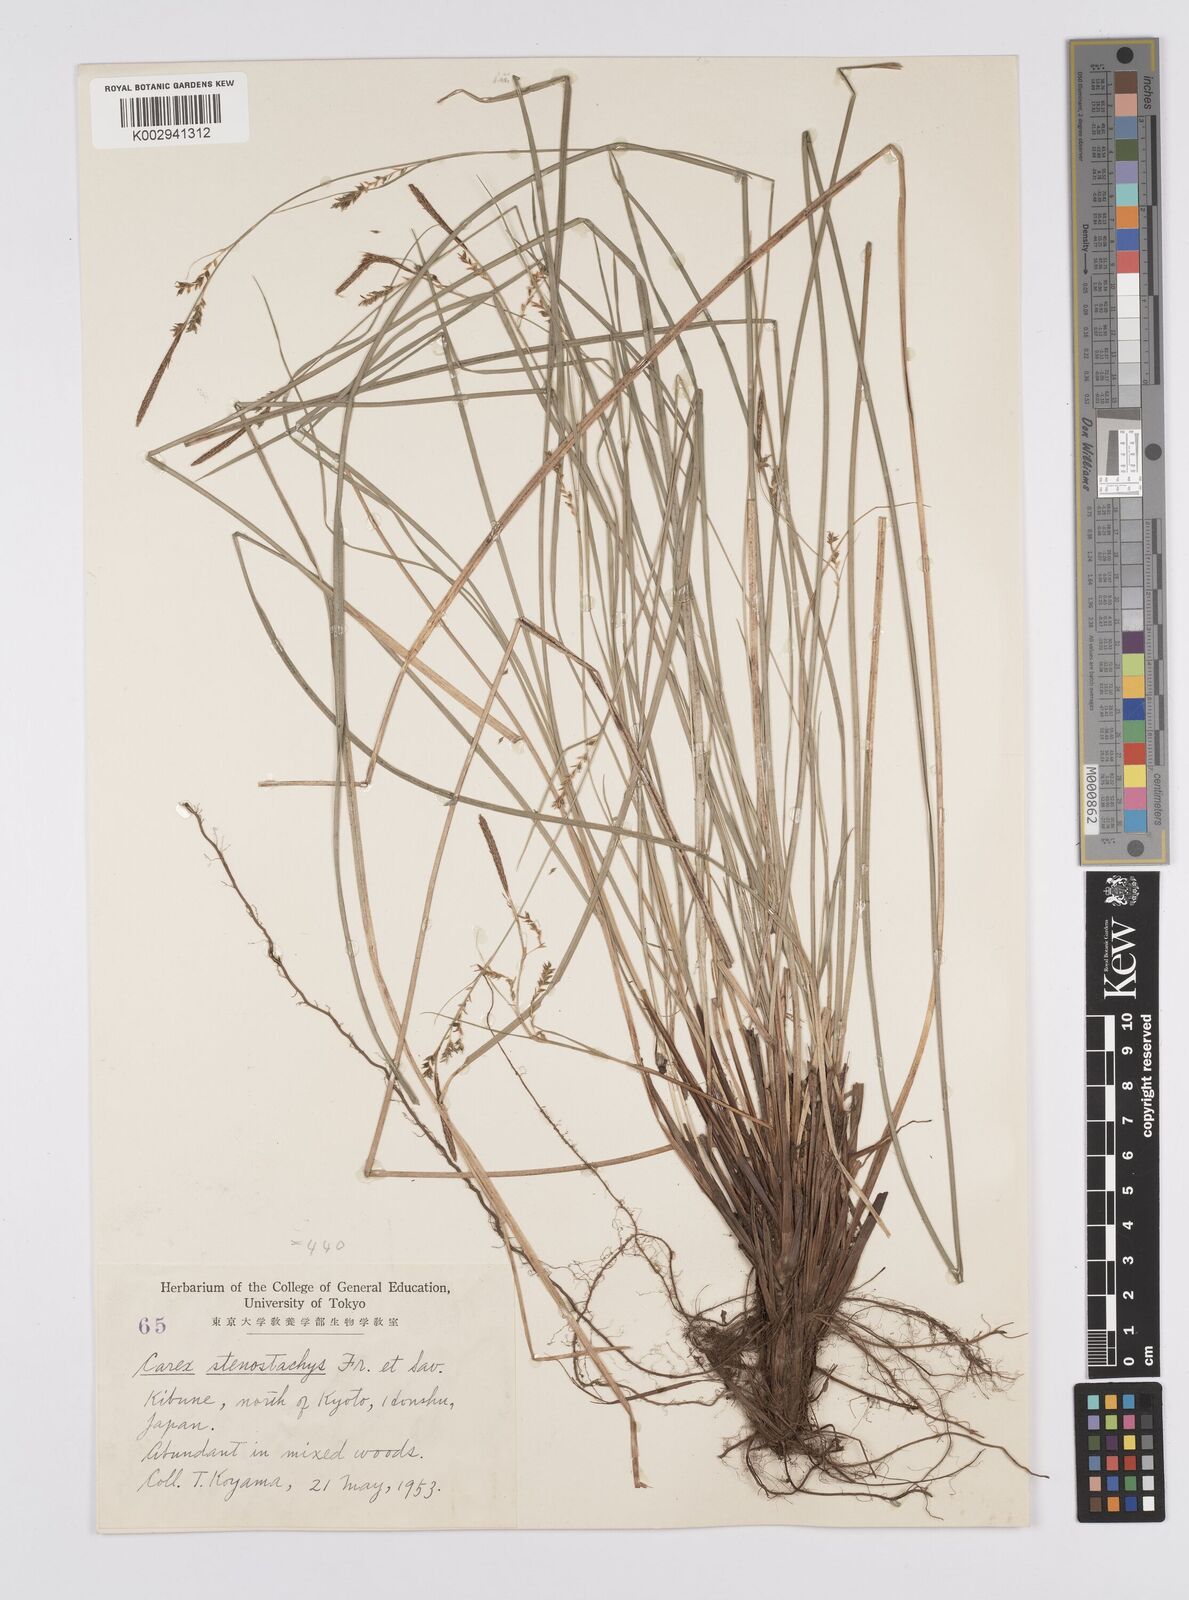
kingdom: Plantae
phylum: Tracheophyta
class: Liliopsida
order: Poales
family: Cyperaceae
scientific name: Cyperaceae
